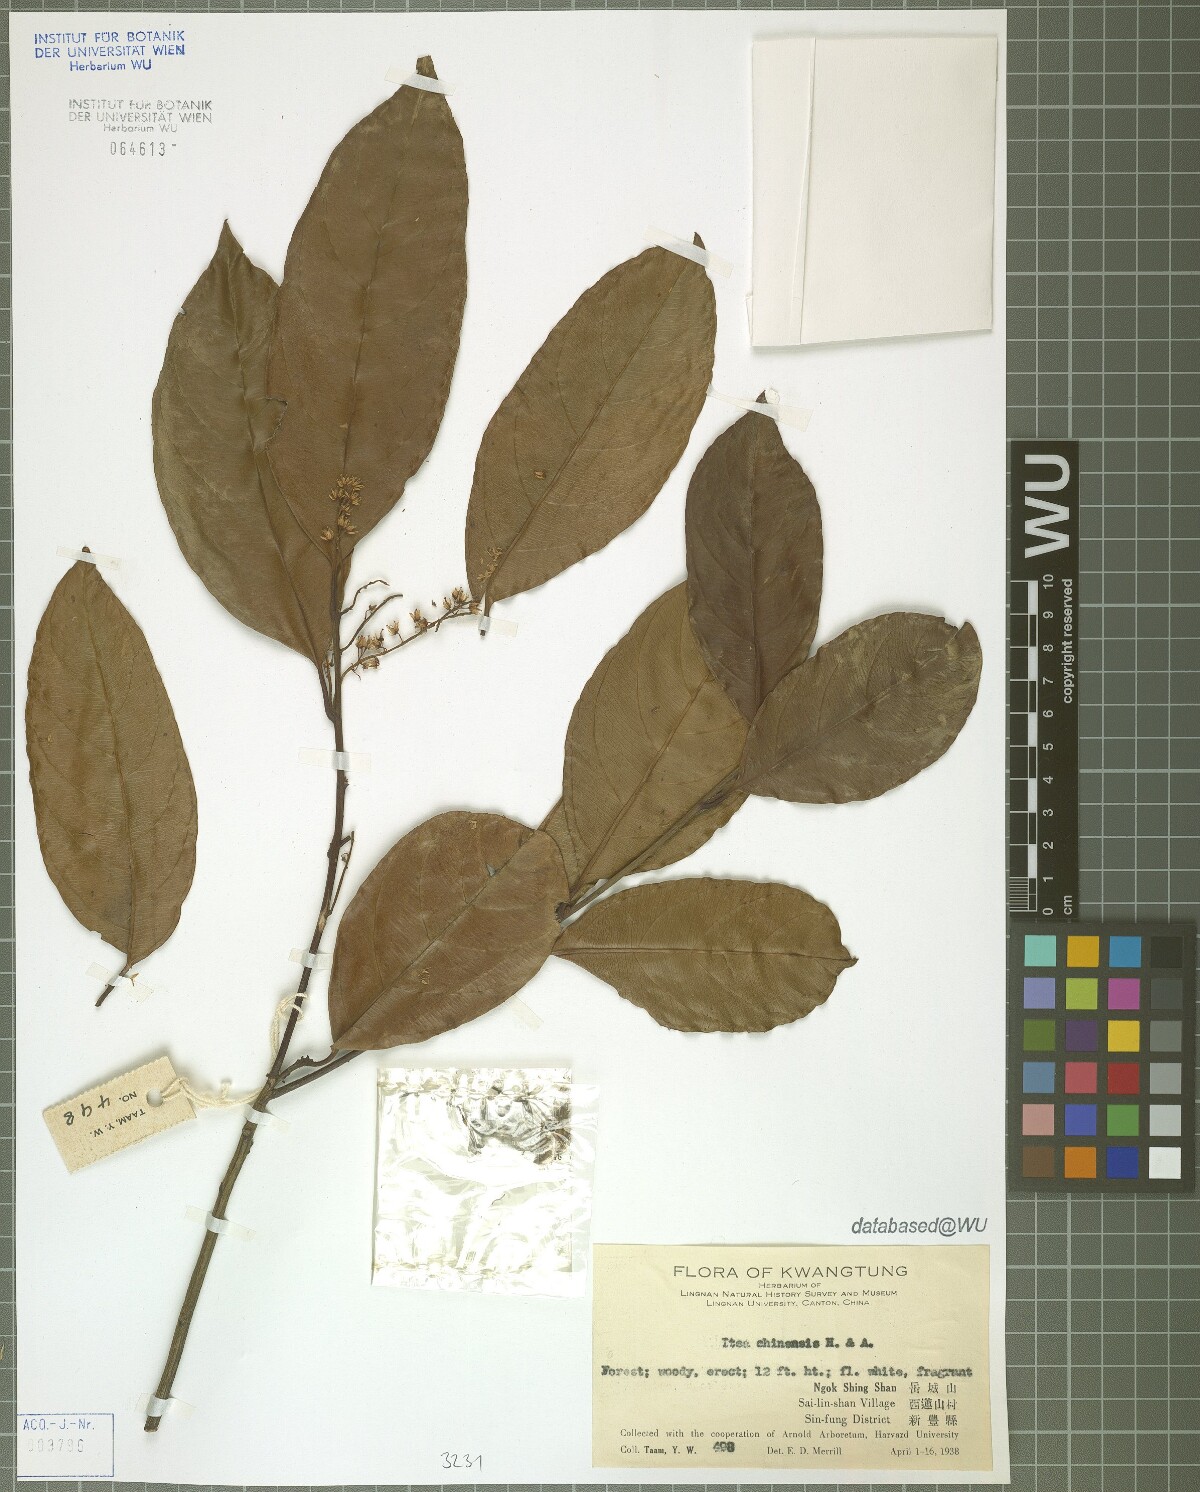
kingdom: Plantae
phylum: Tracheophyta
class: Magnoliopsida
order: Saxifragales
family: Iteaceae
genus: Itea
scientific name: Itea chinensis
